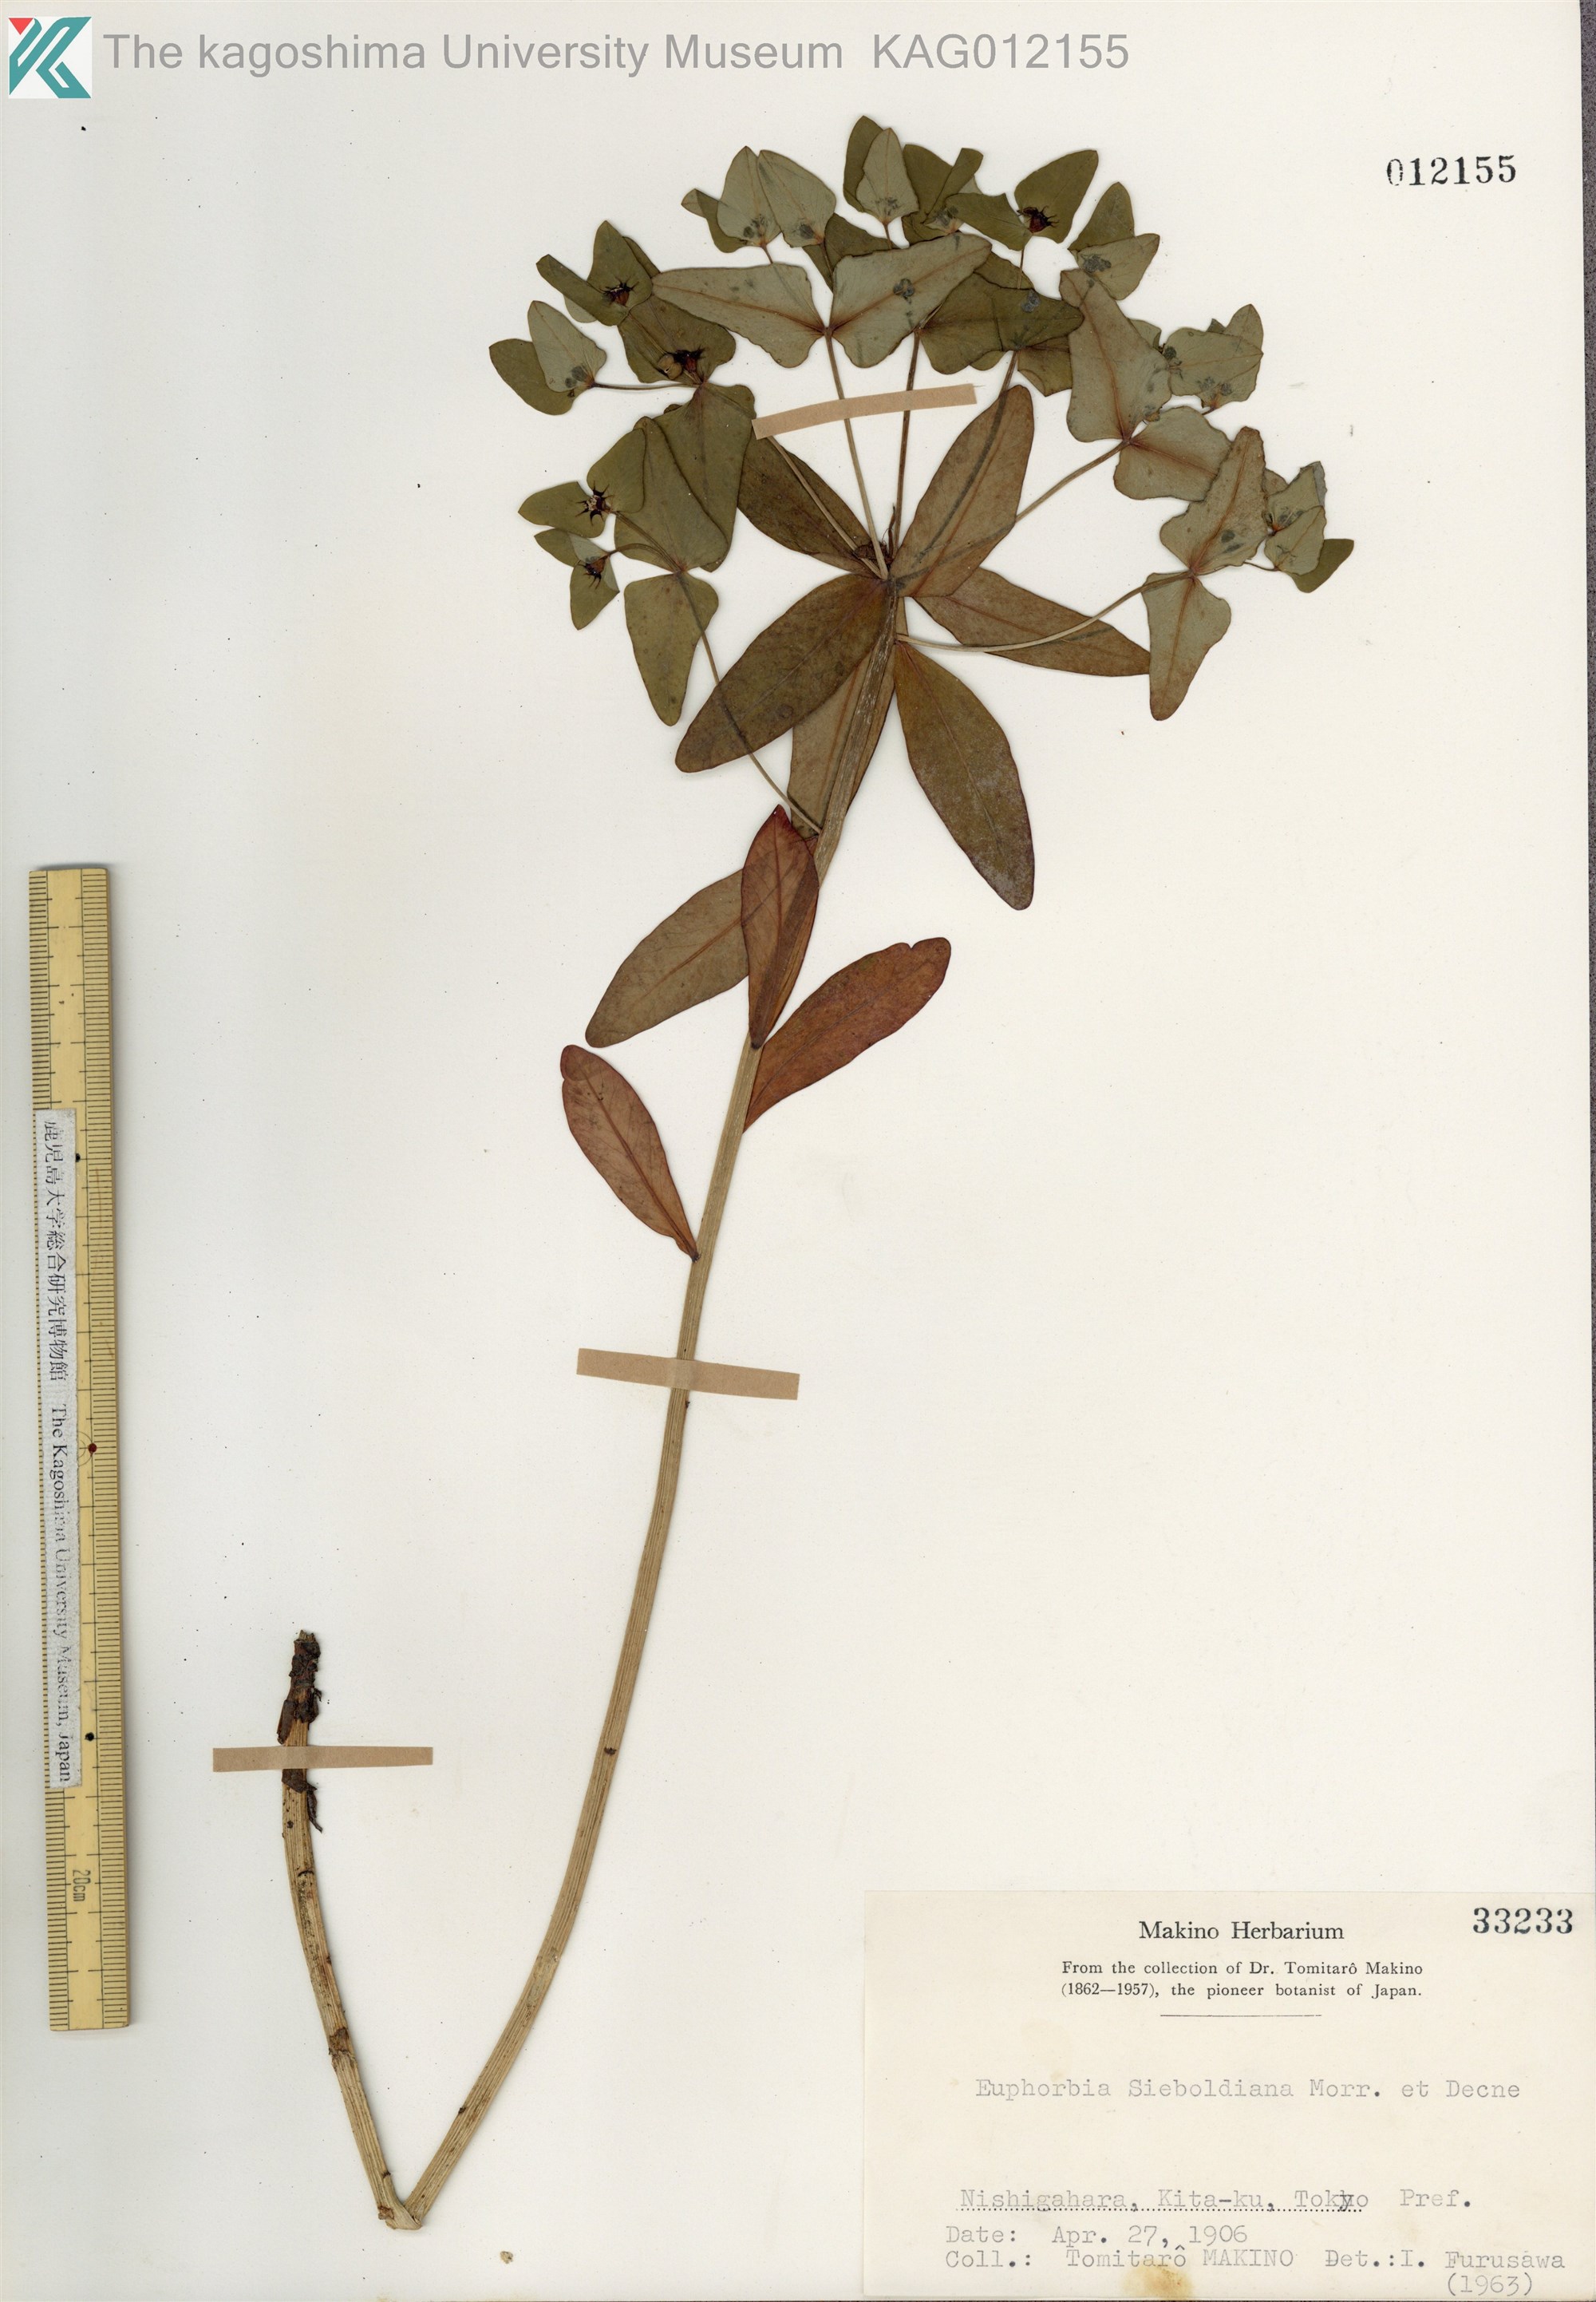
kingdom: Plantae
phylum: Tracheophyta
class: Magnoliopsida
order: Malpighiales
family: Euphorbiaceae
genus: Euphorbia
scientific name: Euphorbia sieboldiana
